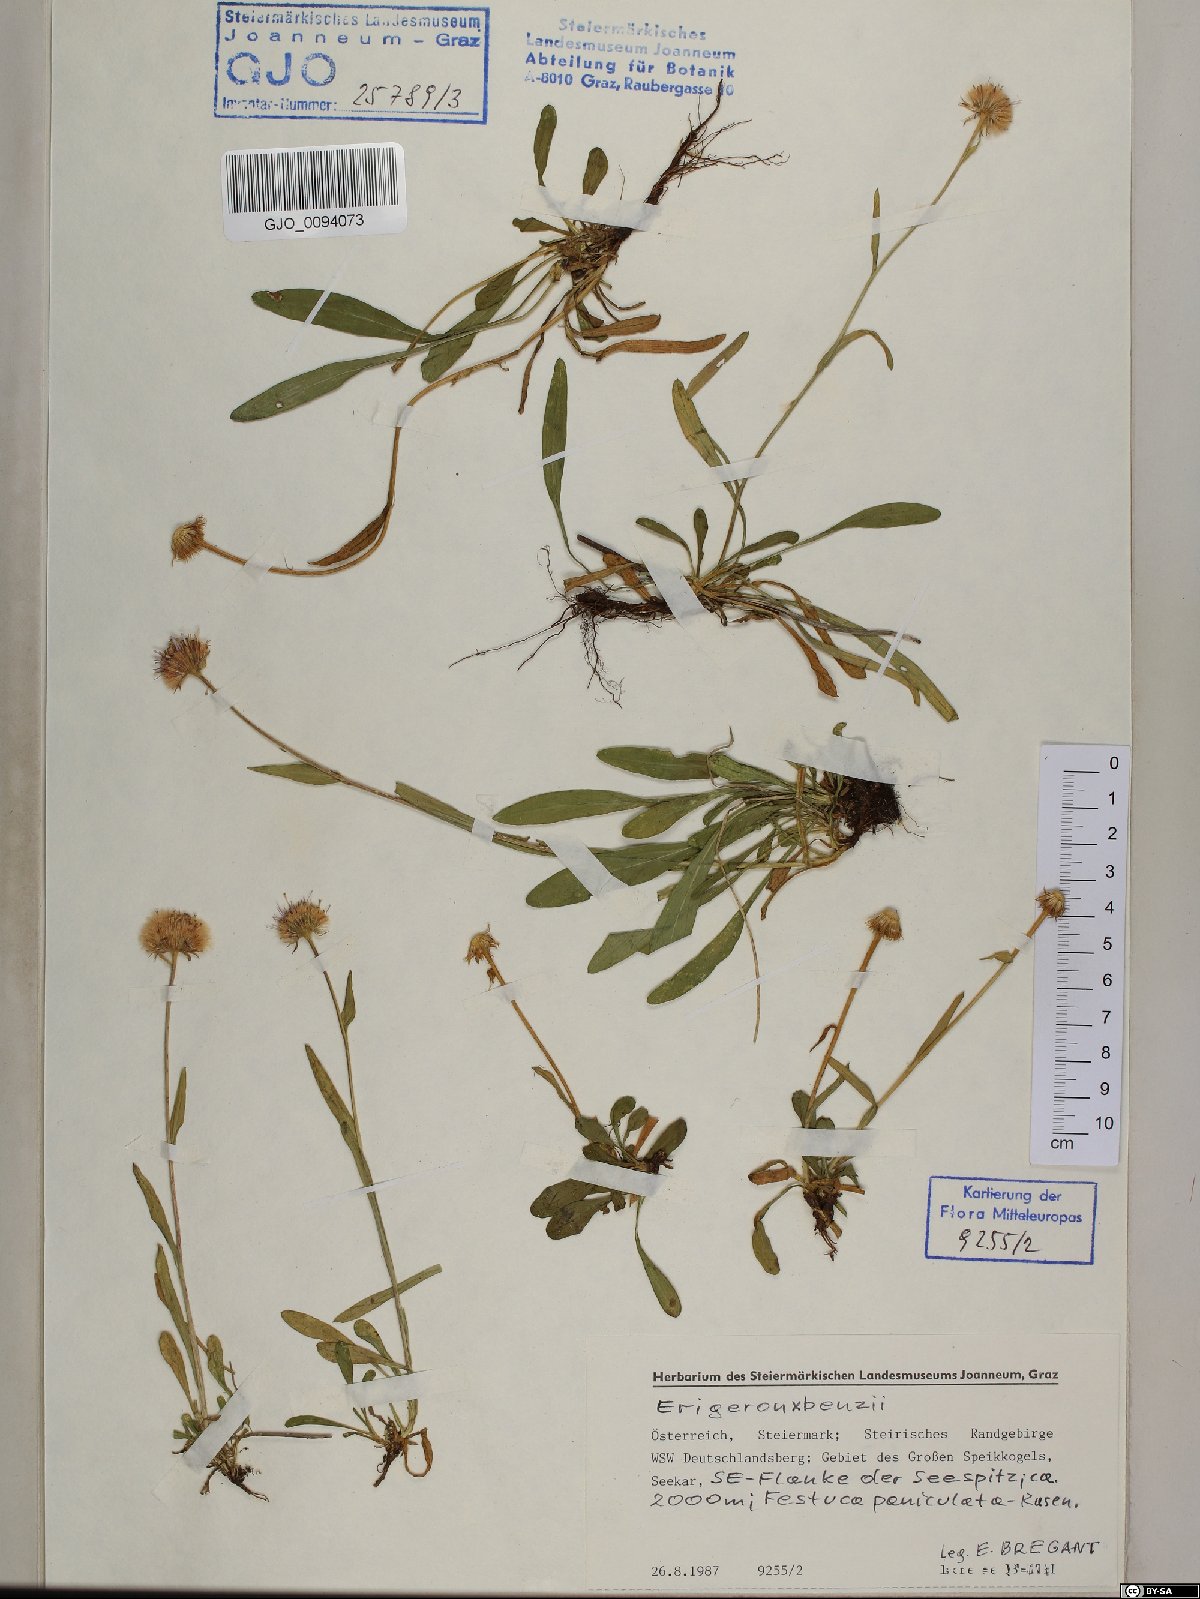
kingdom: Plantae
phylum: Tracheophyta
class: Magnoliopsida
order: Asterales
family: Asteraceae
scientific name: Asteraceae
